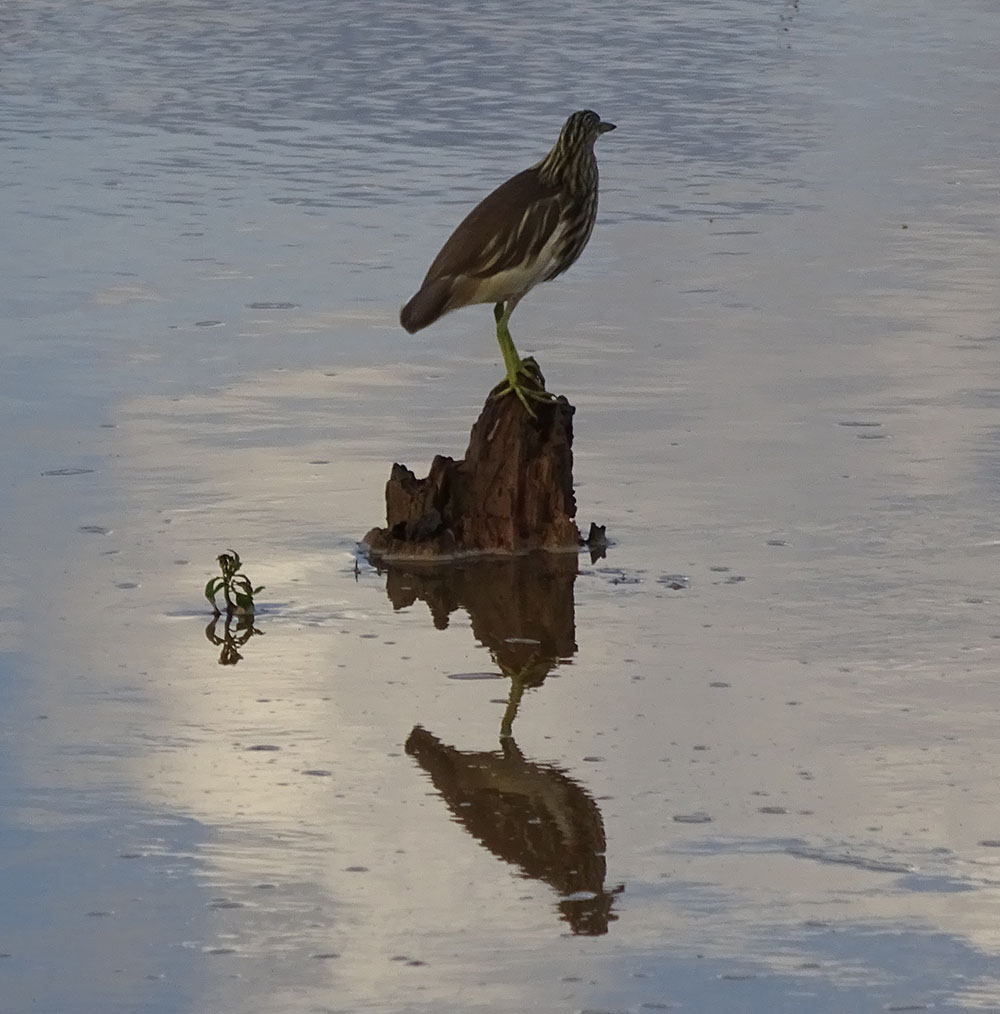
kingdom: Animalia
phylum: Chordata
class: Aves
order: Pelecaniformes
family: Ardeidae
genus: Ardeola
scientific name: Ardeola grayii
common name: Indian pond heron
